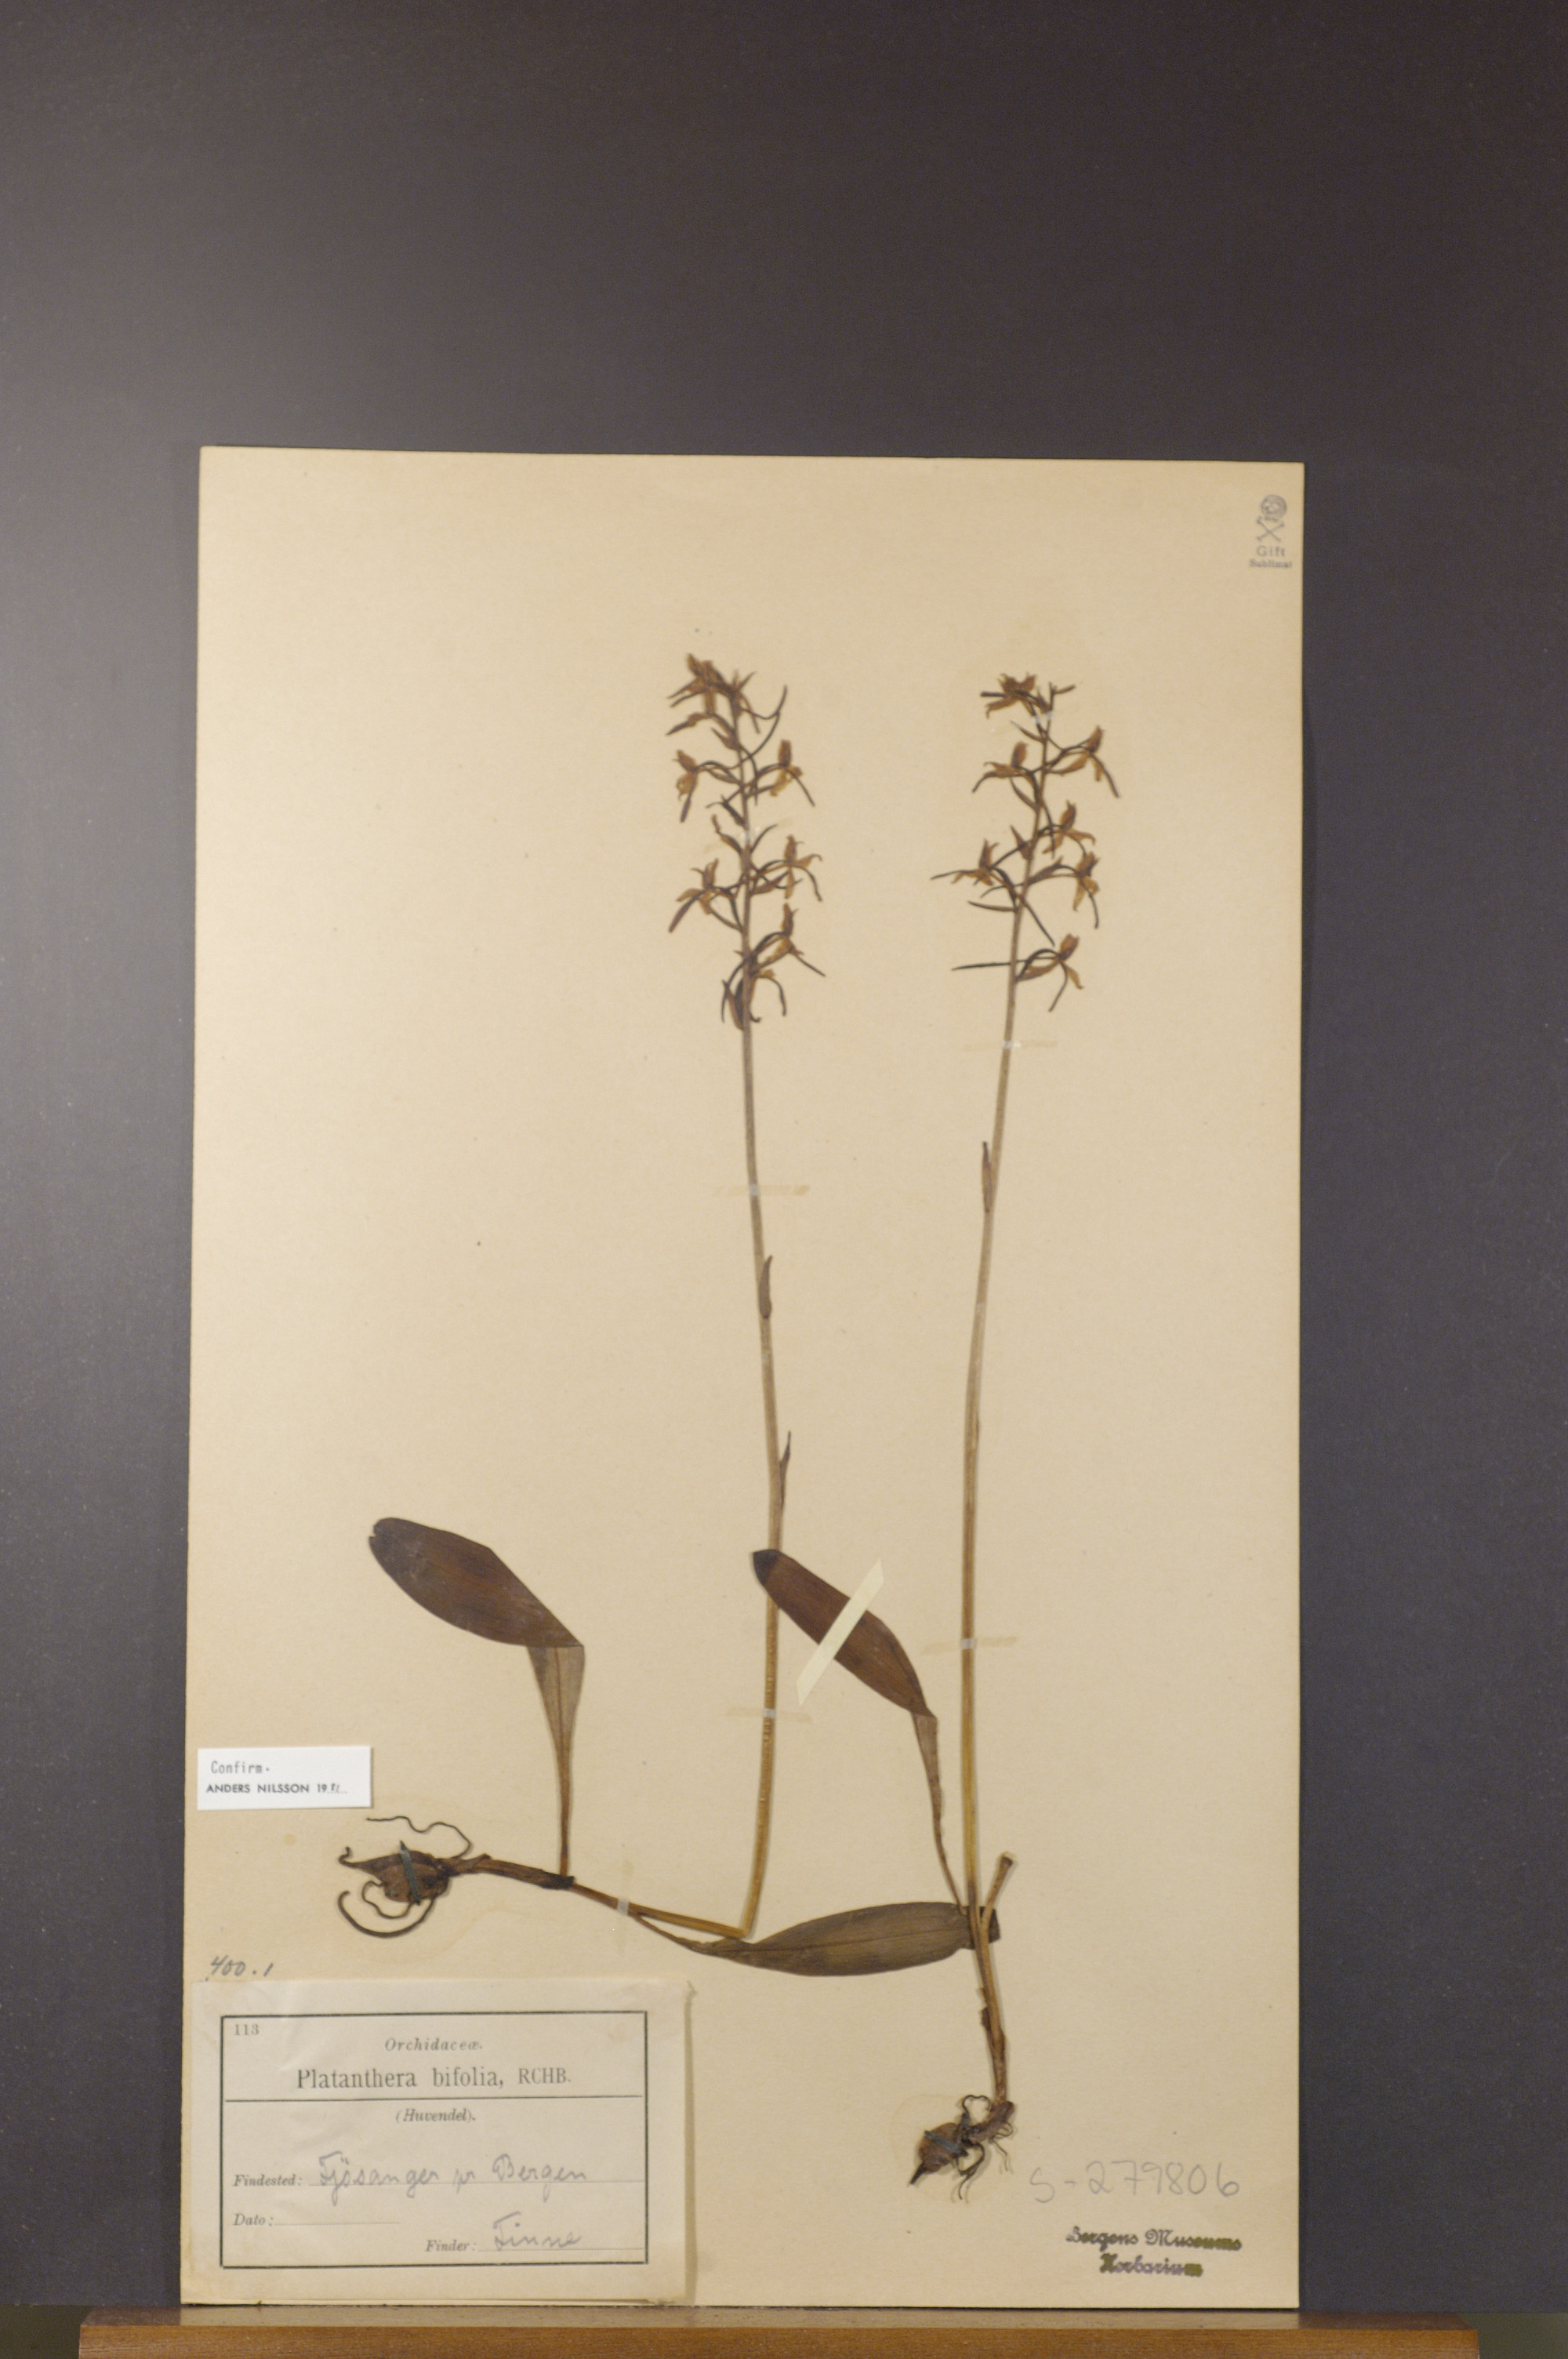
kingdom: Plantae
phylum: Tracheophyta
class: Liliopsida
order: Asparagales
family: Orchidaceae
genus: Platanthera
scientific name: Platanthera bifolia
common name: Lesser butterfly-orchid
